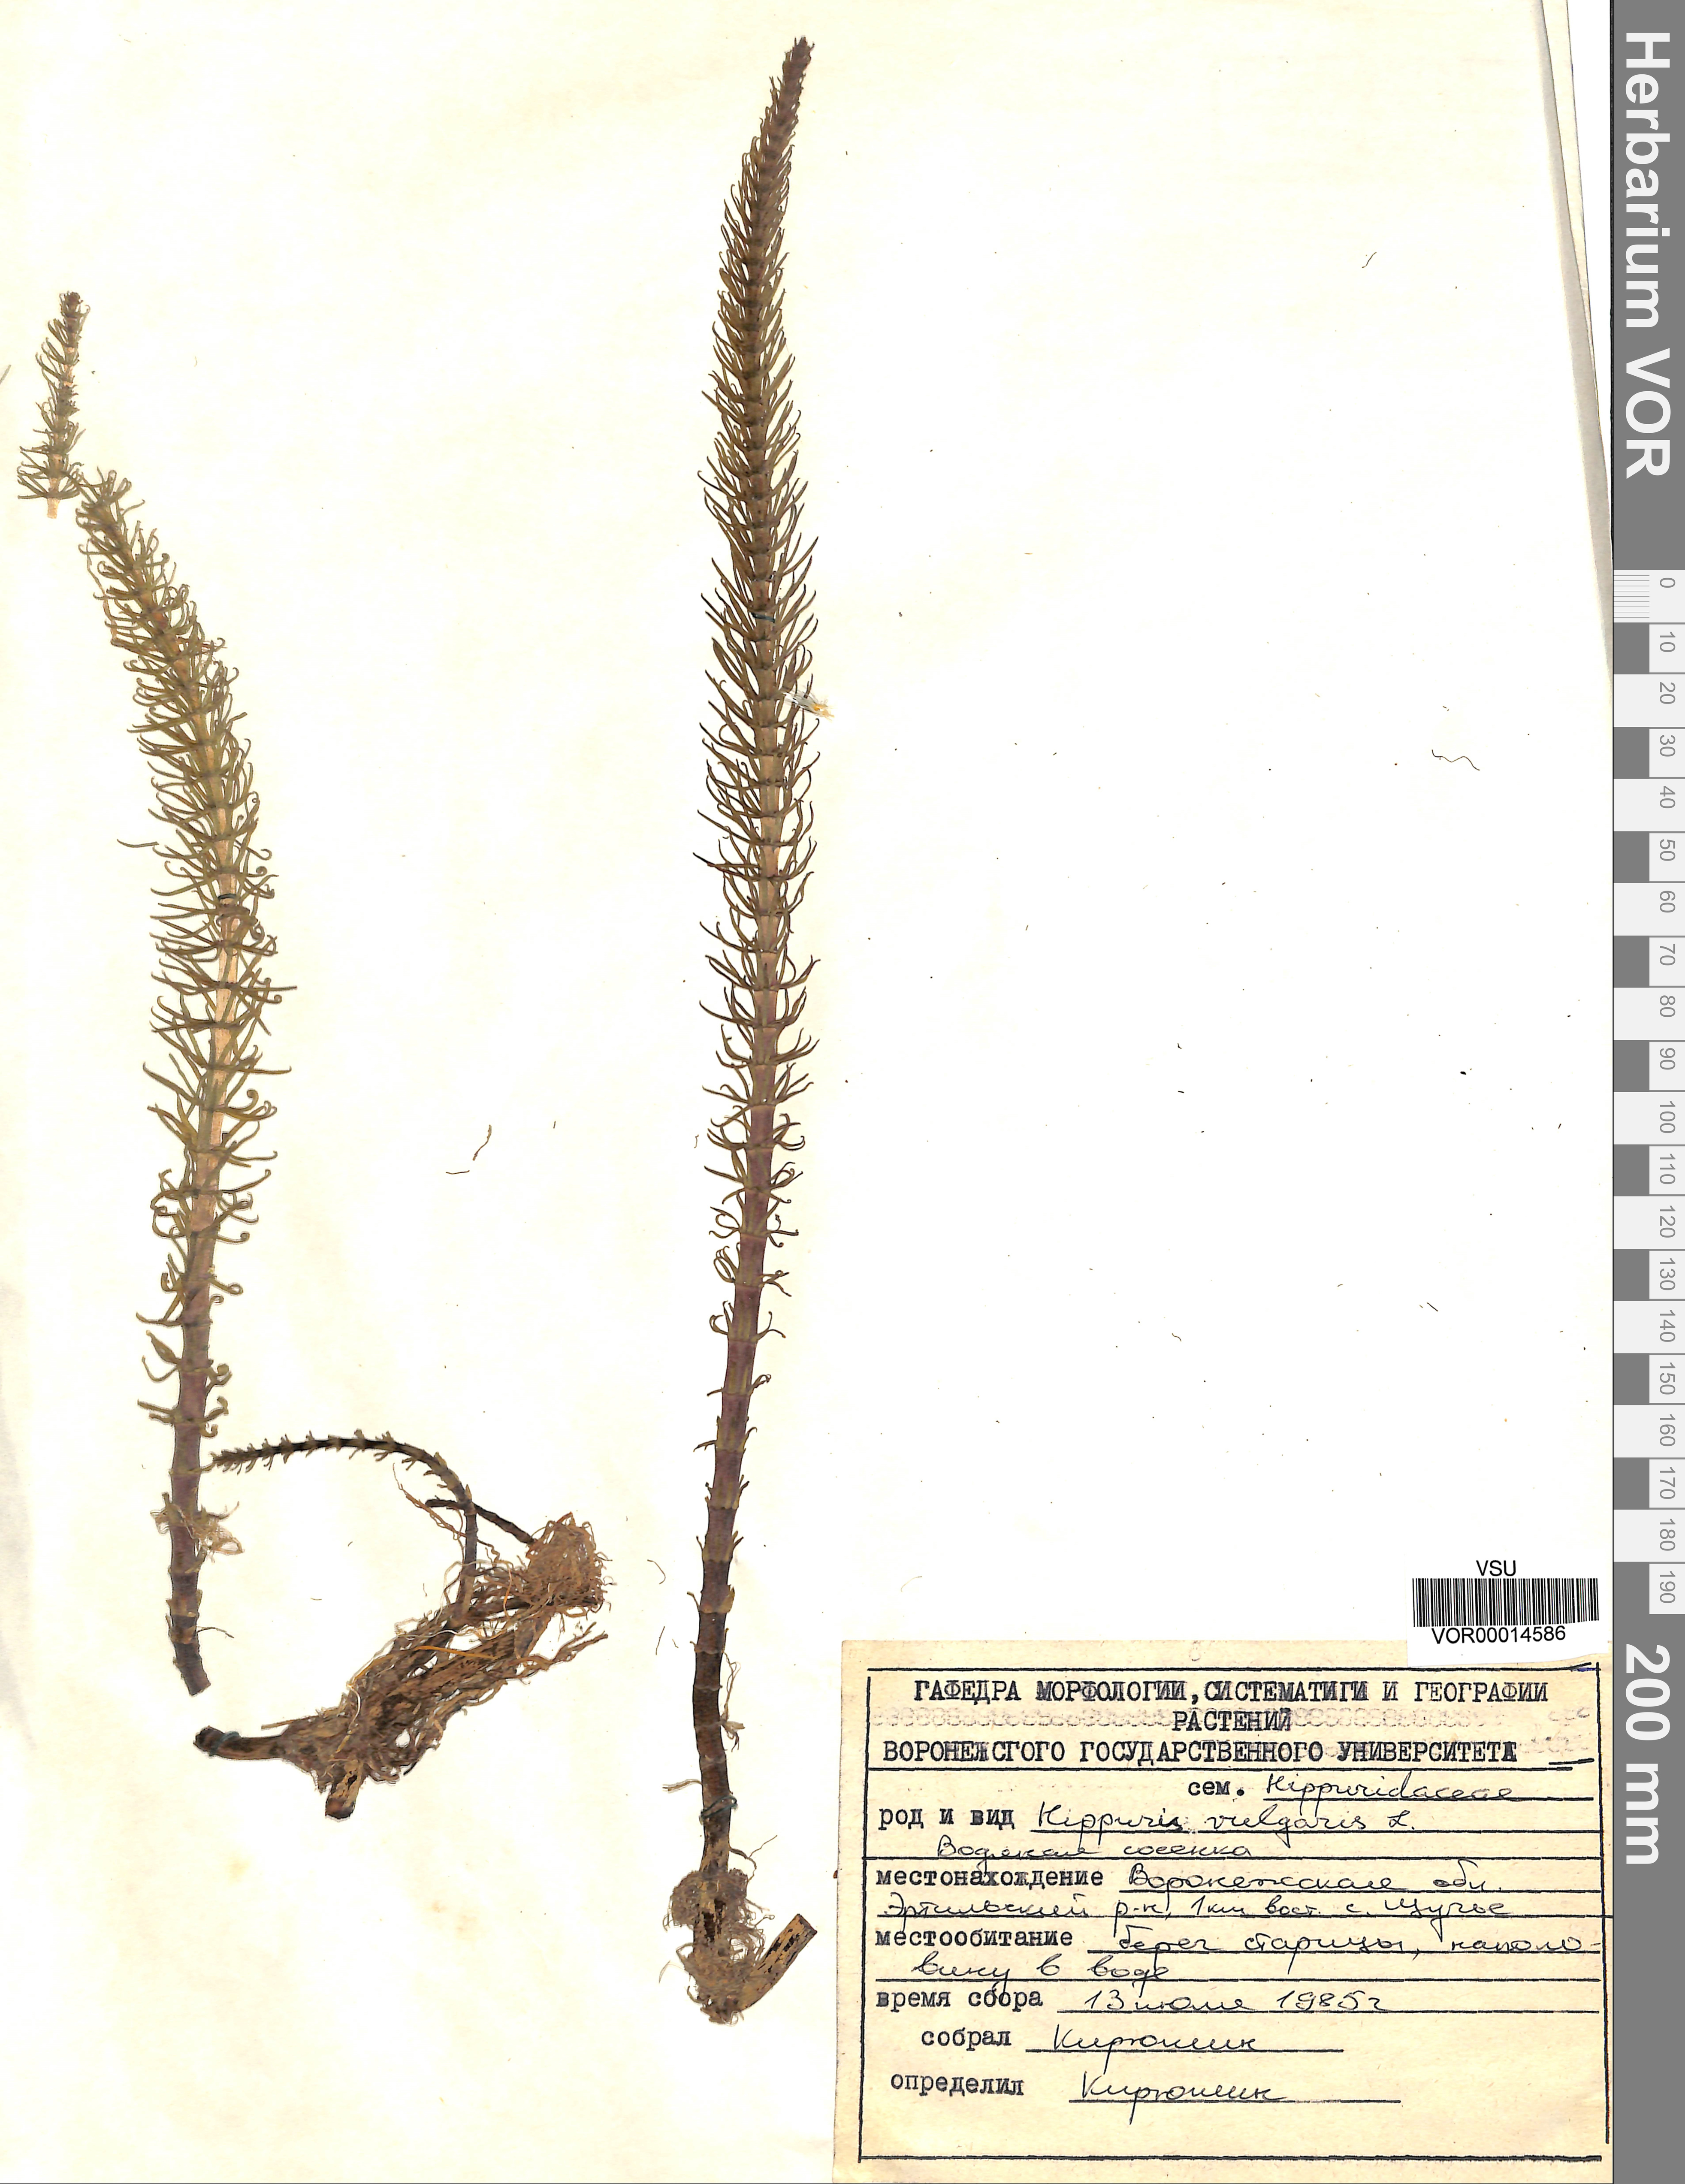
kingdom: Plantae
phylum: Tracheophyta
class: Magnoliopsida
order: Lamiales
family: Plantaginaceae
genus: Hippuris
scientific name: Hippuris vulgaris
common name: Mare's-tail
